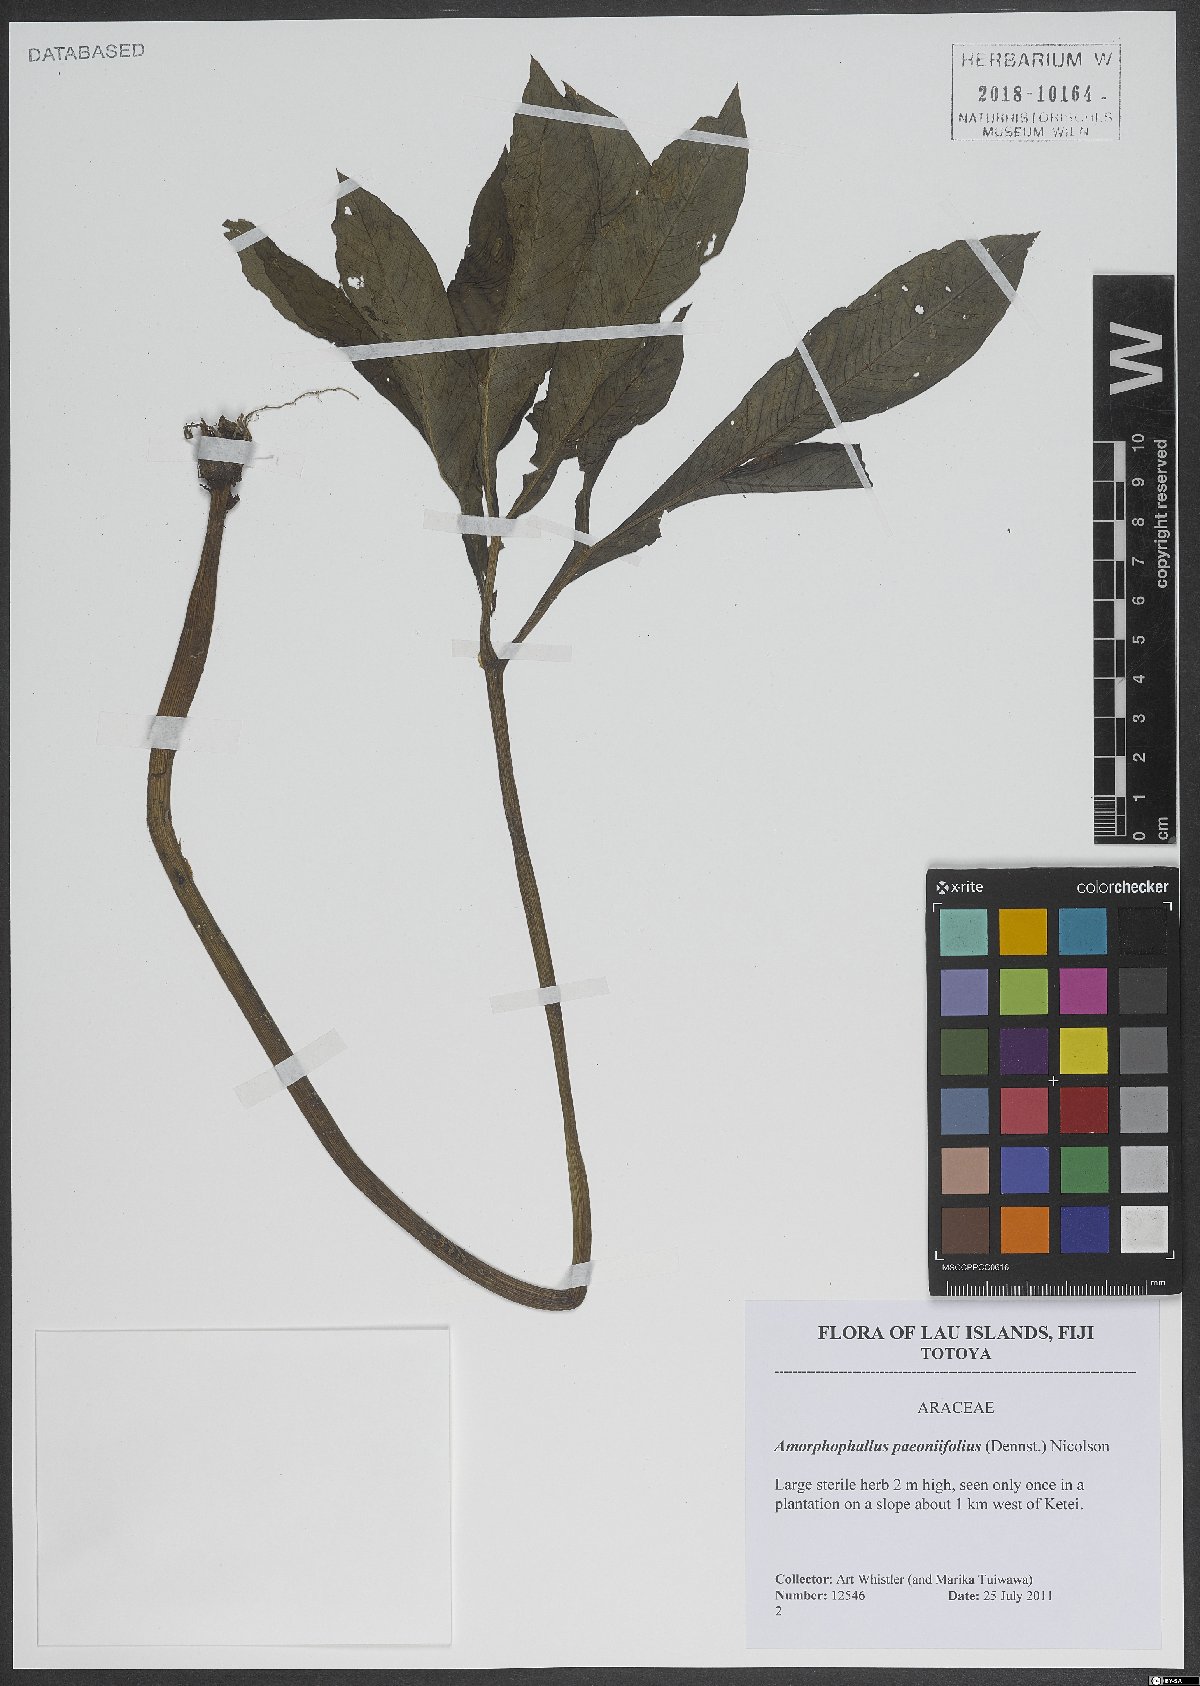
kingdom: Plantae
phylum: Tracheophyta
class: Liliopsida
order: Alismatales
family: Araceae
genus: Amorphophallus
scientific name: Amorphophallus paeoniifolius
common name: Telinga-potato
